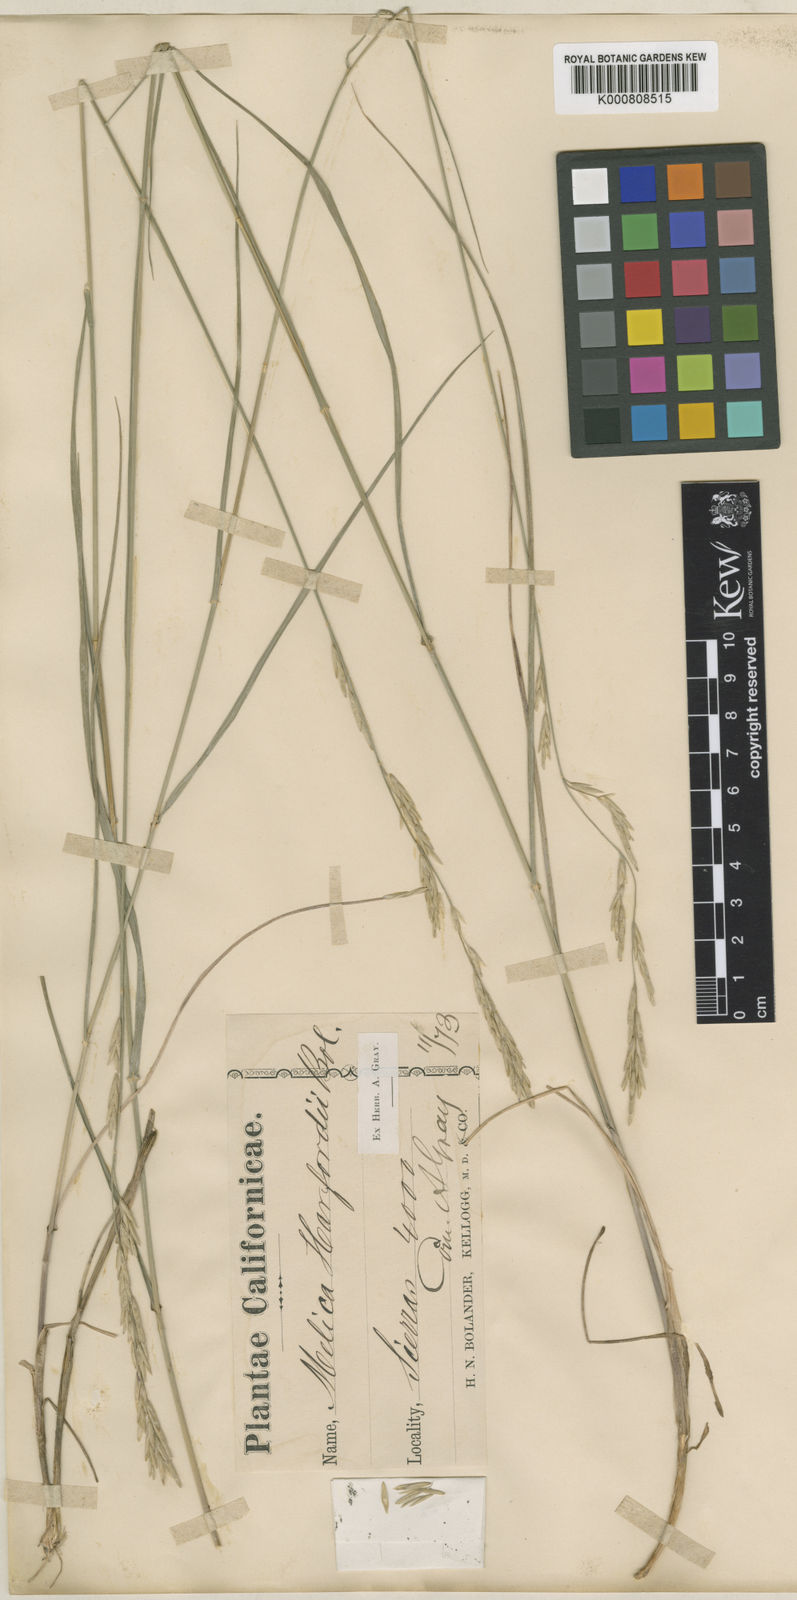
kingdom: Plantae
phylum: Tracheophyta
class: Liliopsida
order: Poales
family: Poaceae
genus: Melica
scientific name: Melica harfordii
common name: Harford's melic
